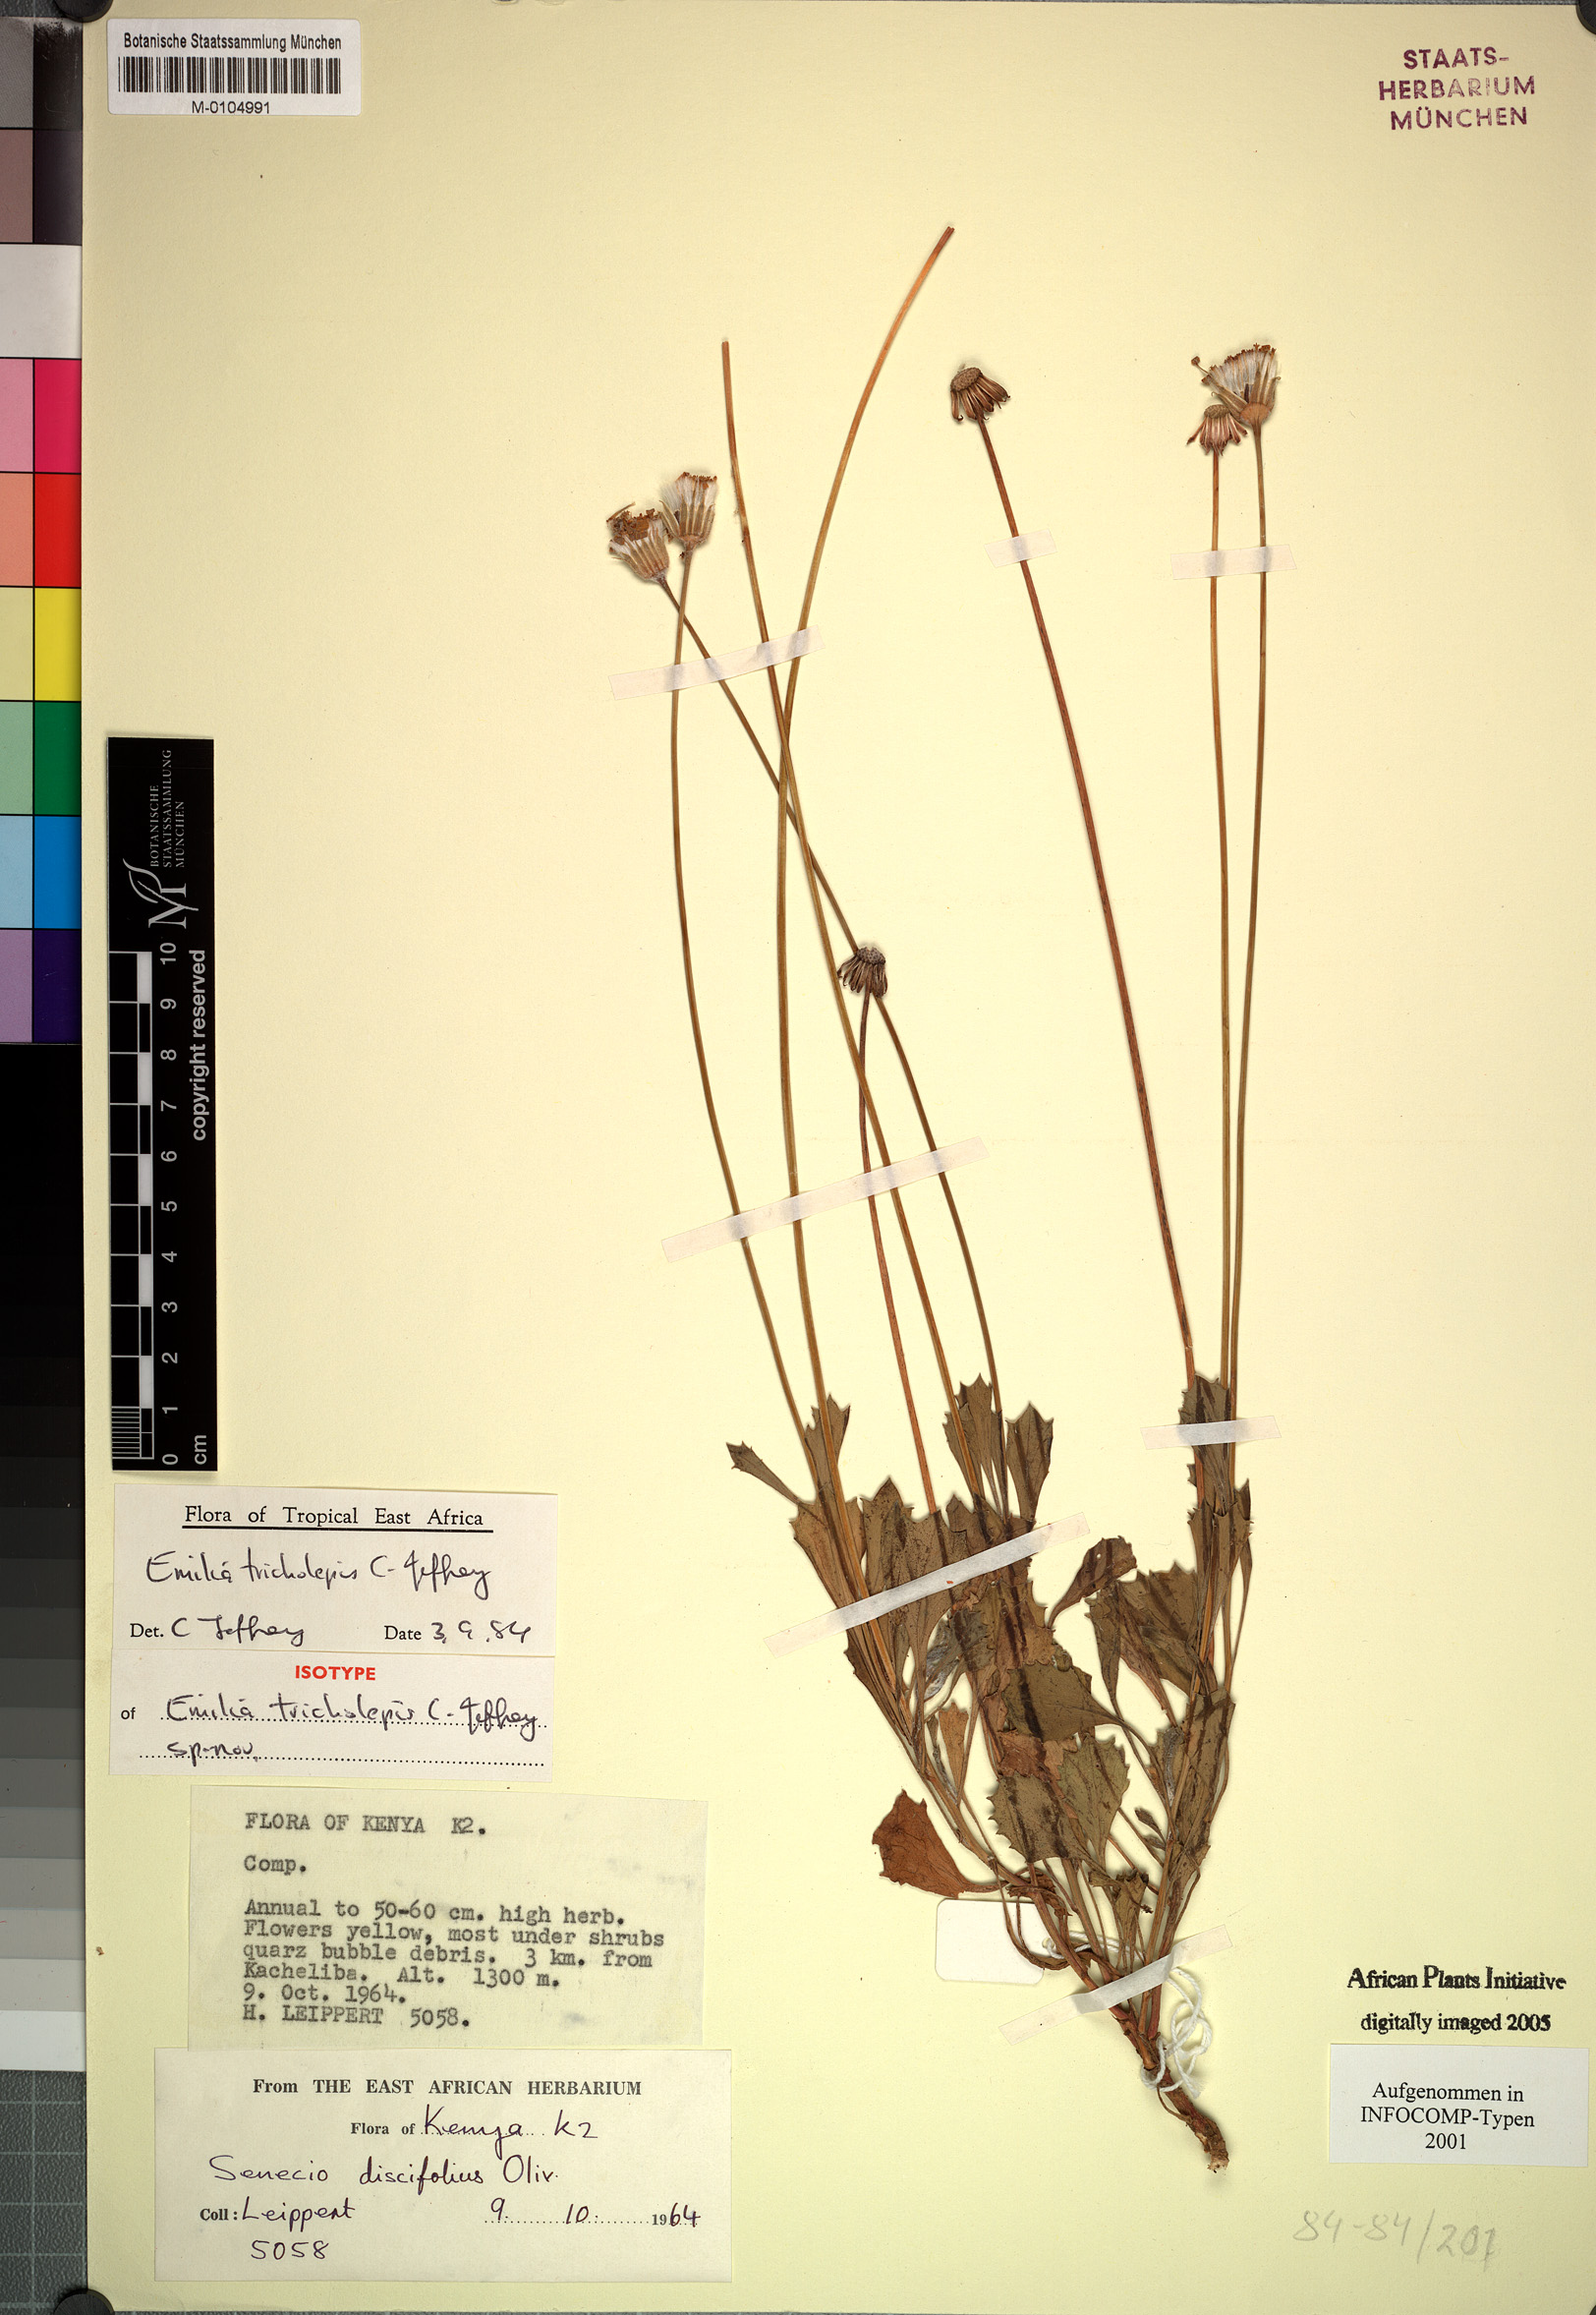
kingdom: Plantae
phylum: Tracheophyta
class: Magnoliopsida
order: Asterales
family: Asteraceae
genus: Emilia
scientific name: Emilia tricholepis
